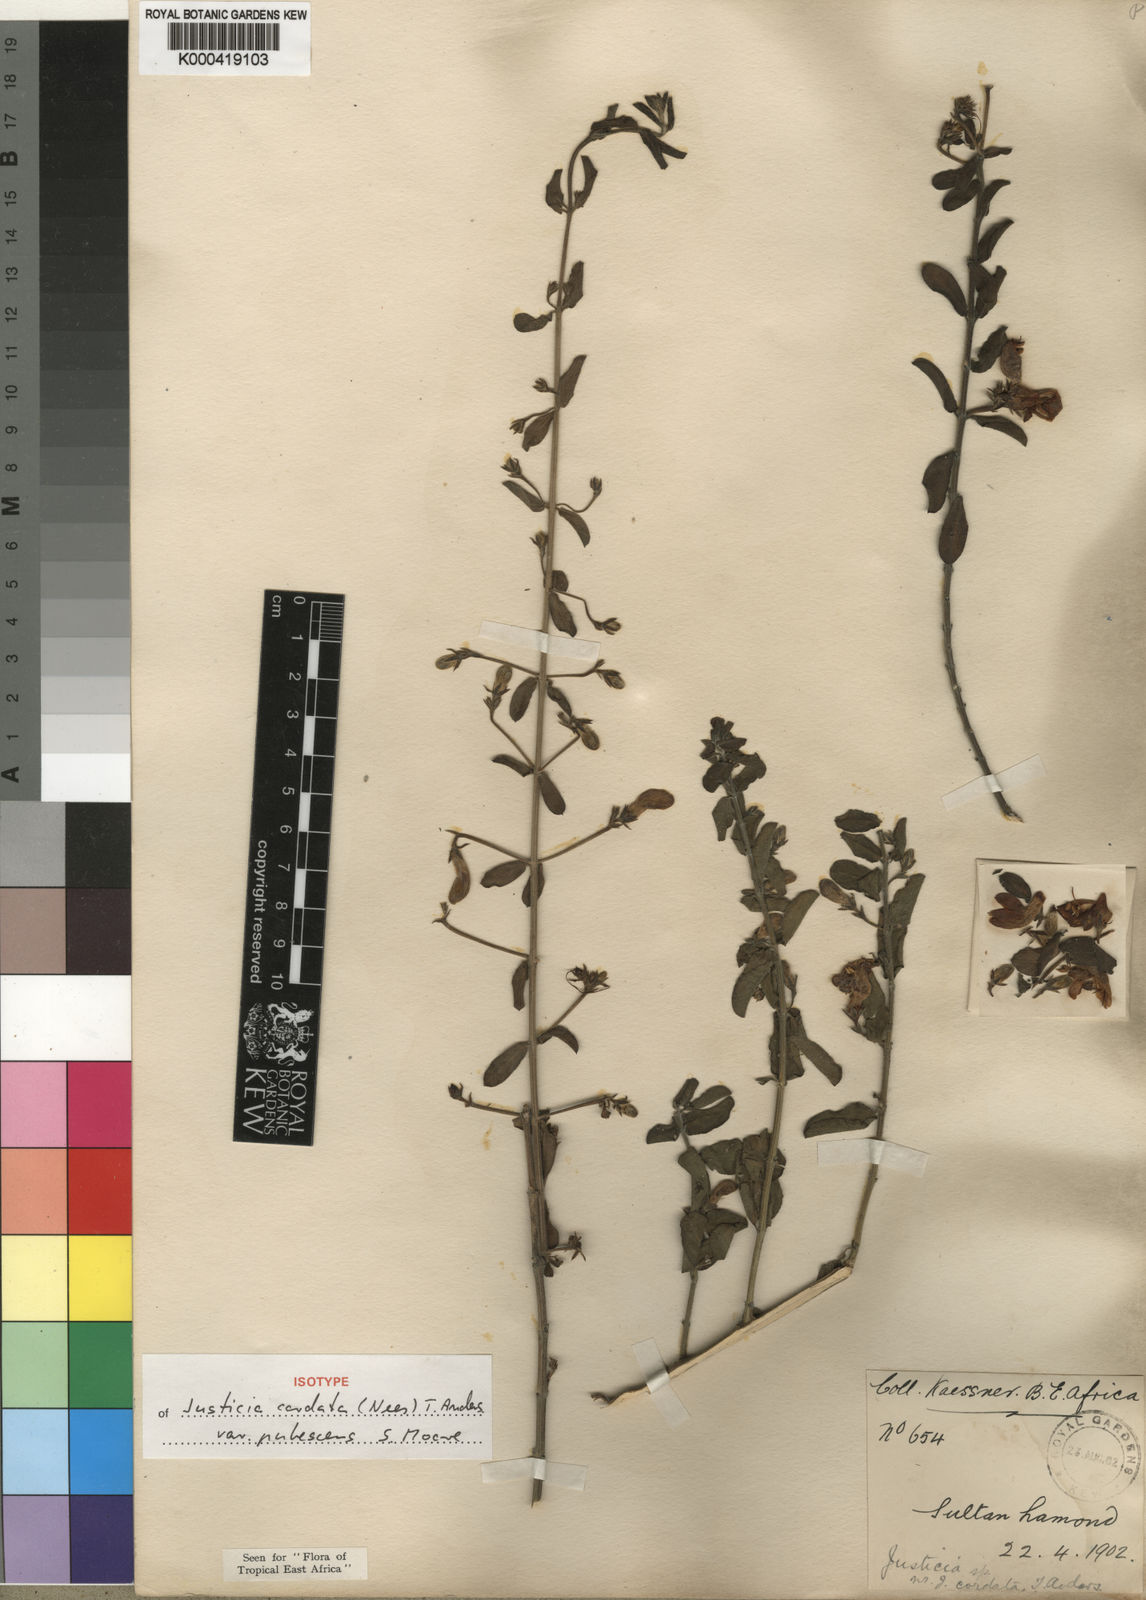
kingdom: Plantae
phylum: Tracheophyta
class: Magnoliopsida
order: Lamiales
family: Acanthaceae
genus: Justicia
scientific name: Justicia cordata
